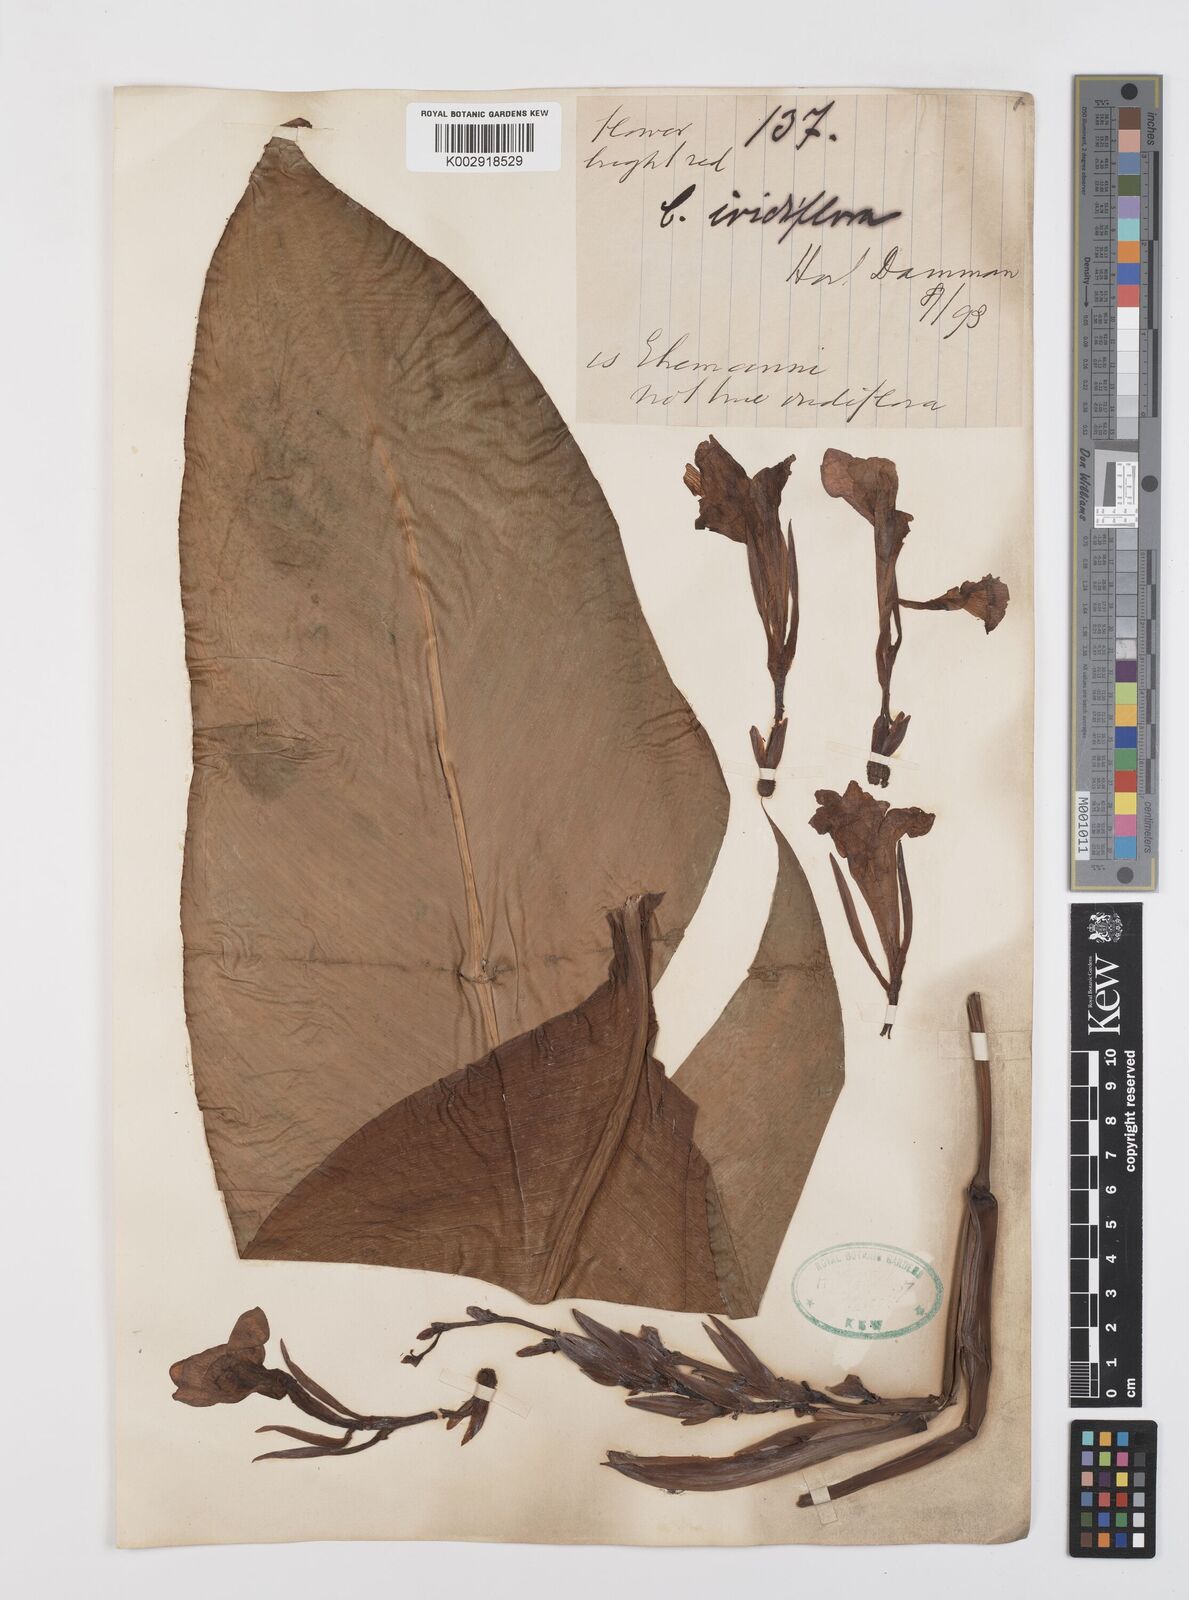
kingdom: Plantae
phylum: Tracheophyta
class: Liliopsida
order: Zingiberales
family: Cannaceae
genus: Canna
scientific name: Canna iridiflora
